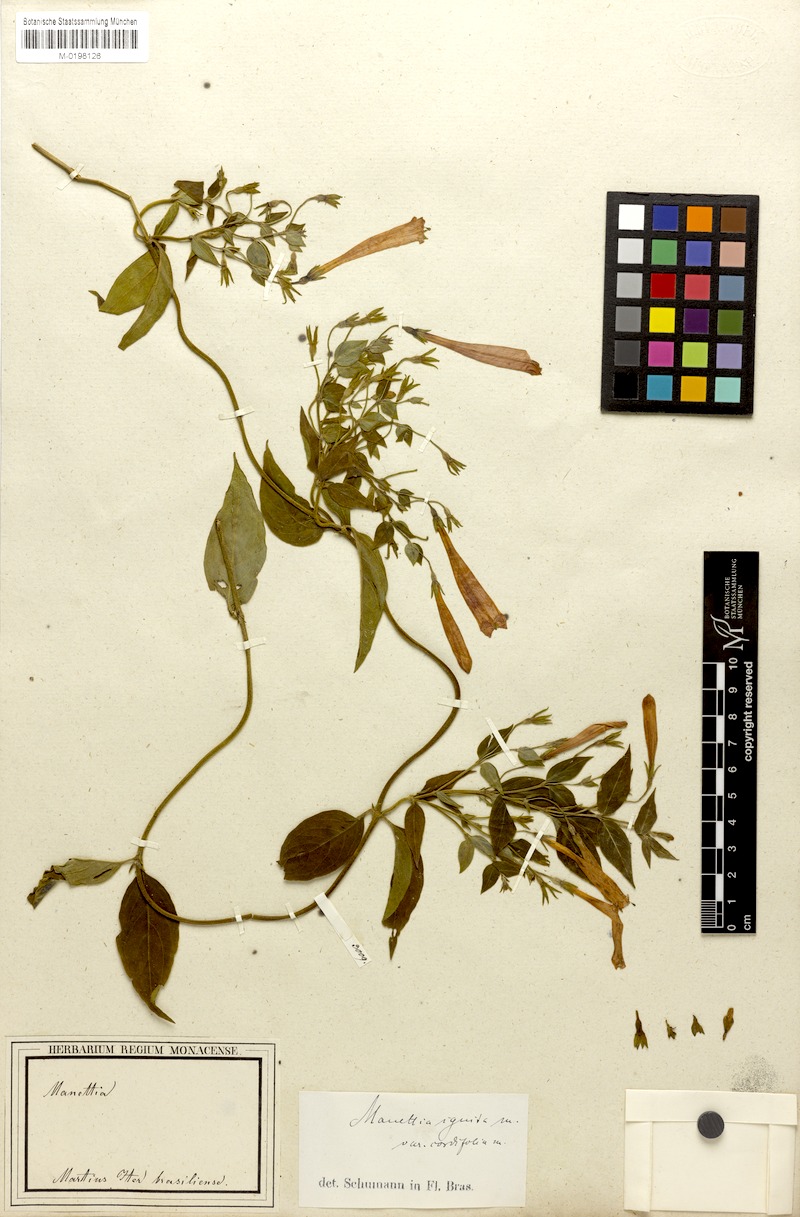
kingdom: Plantae
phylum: Tracheophyta
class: Magnoliopsida
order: Gentianales
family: Rubiaceae
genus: Manettia
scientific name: Manettia cordifolia
